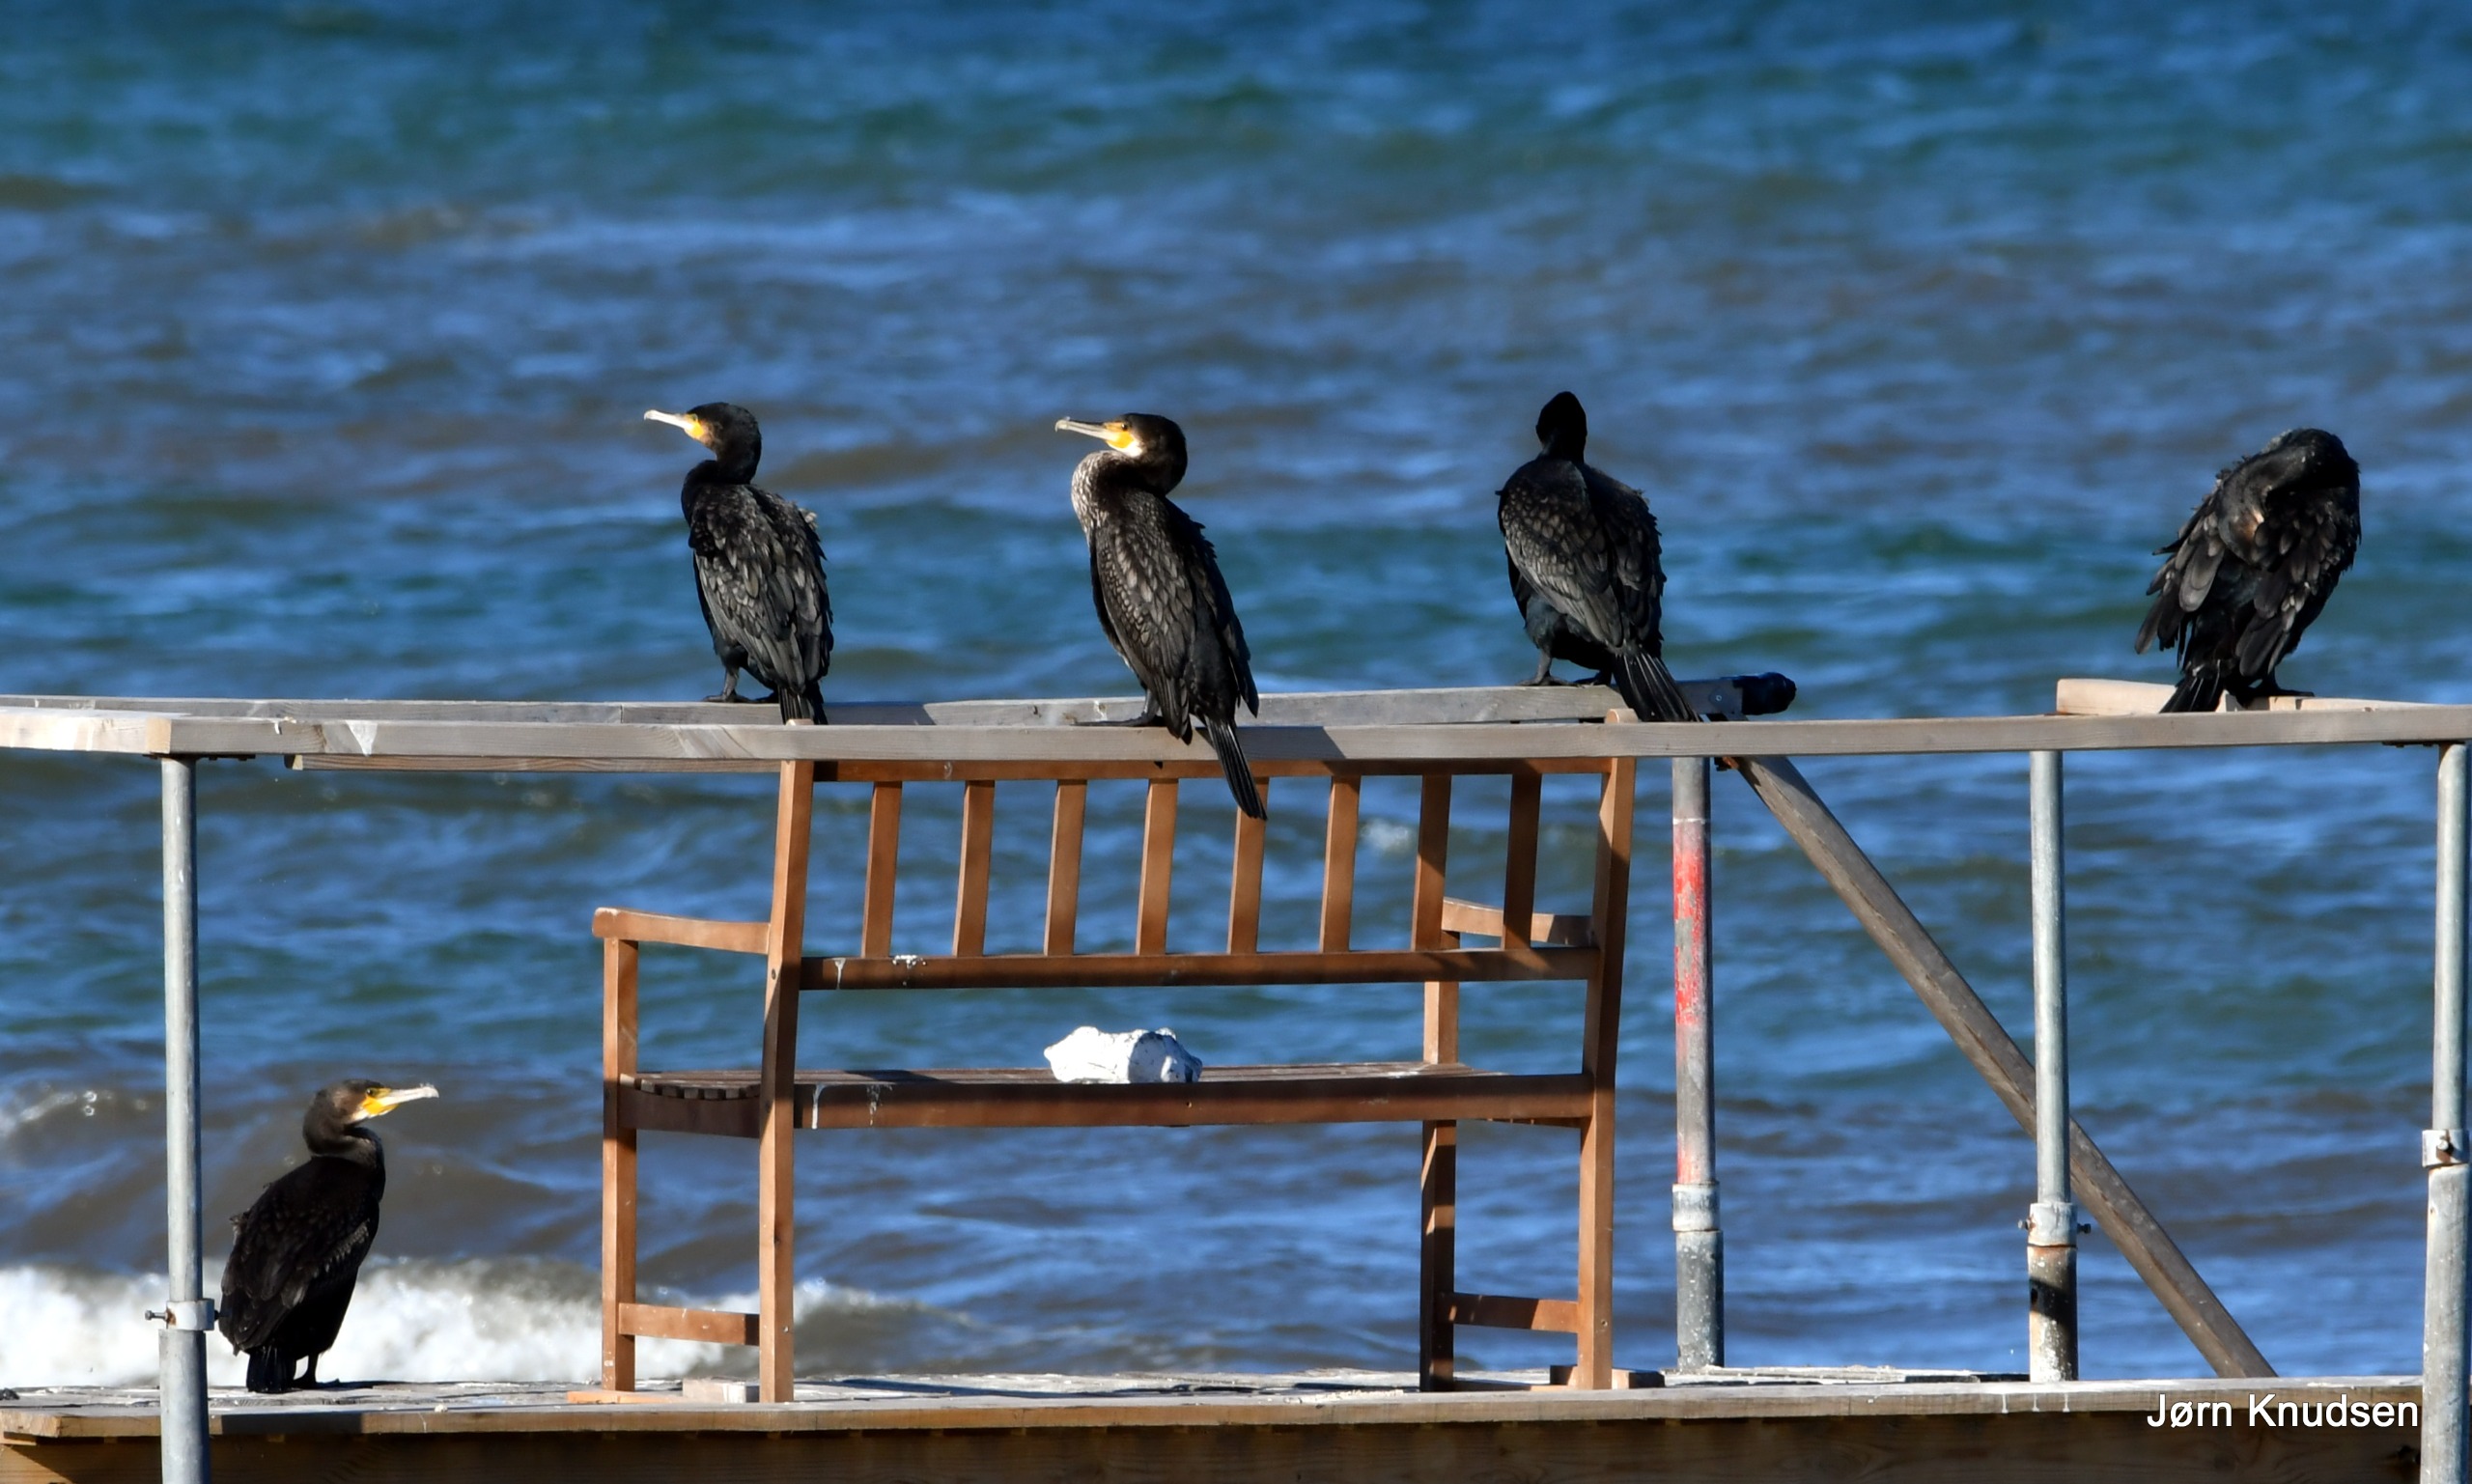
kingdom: Animalia
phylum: Chordata
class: Aves
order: Suliformes
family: Phalacrocoracidae
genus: Phalacrocorax
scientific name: Phalacrocorax carbo
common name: Skarv
